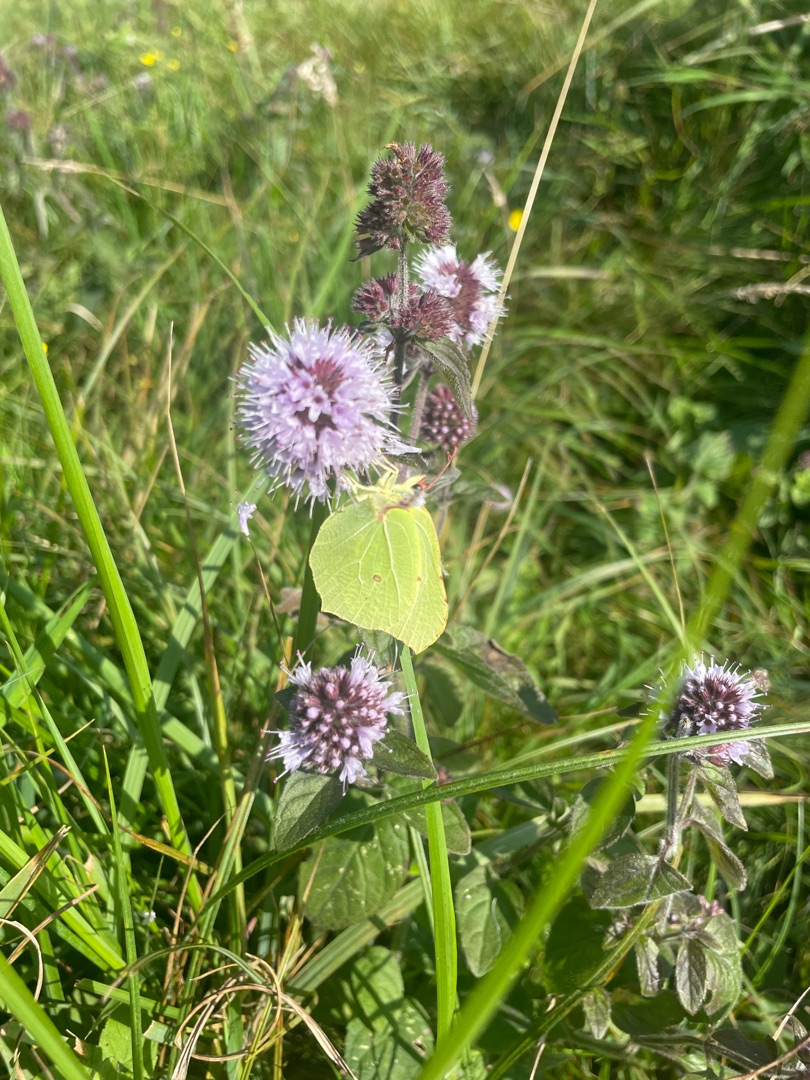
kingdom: Animalia
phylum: Arthropoda
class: Insecta
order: Lepidoptera
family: Pieridae
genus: Gonepteryx
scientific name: Gonepteryx rhamni
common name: Citronsommerfugl
